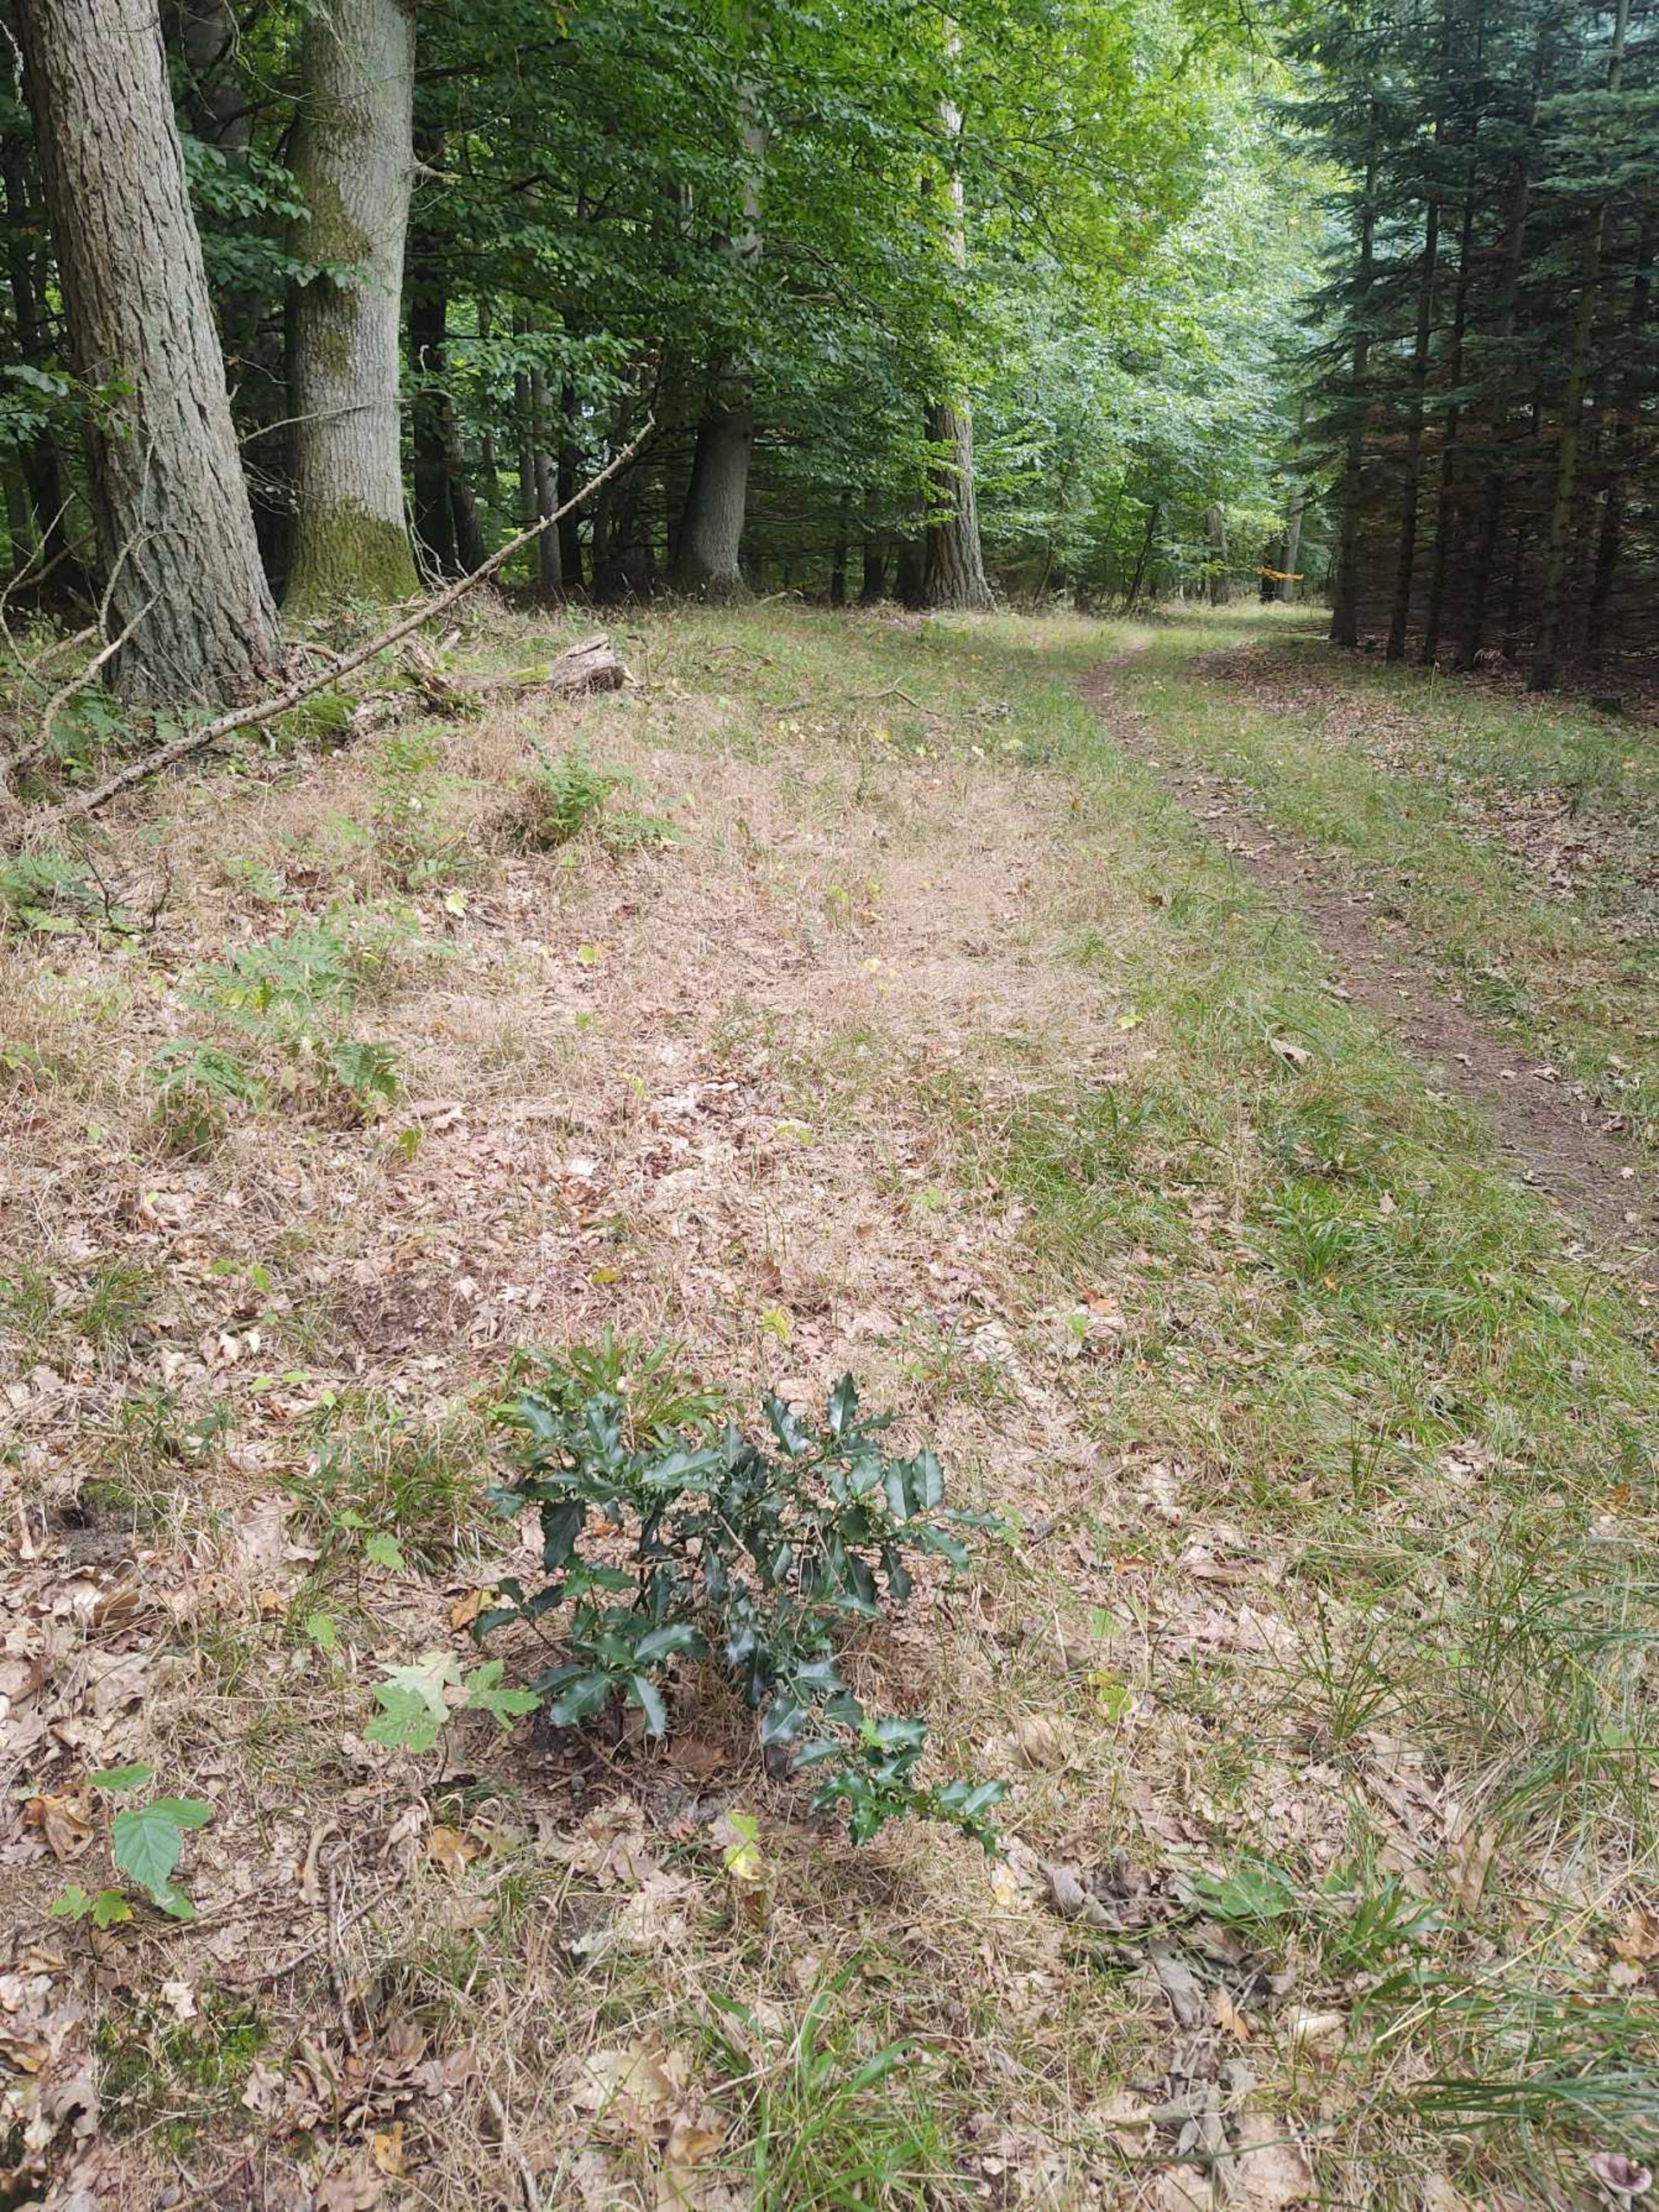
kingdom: Plantae
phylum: Tracheophyta
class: Magnoliopsida
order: Aquifoliales
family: Aquifoliaceae
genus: Ilex
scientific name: Ilex aquifolium
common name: Kristtorn
